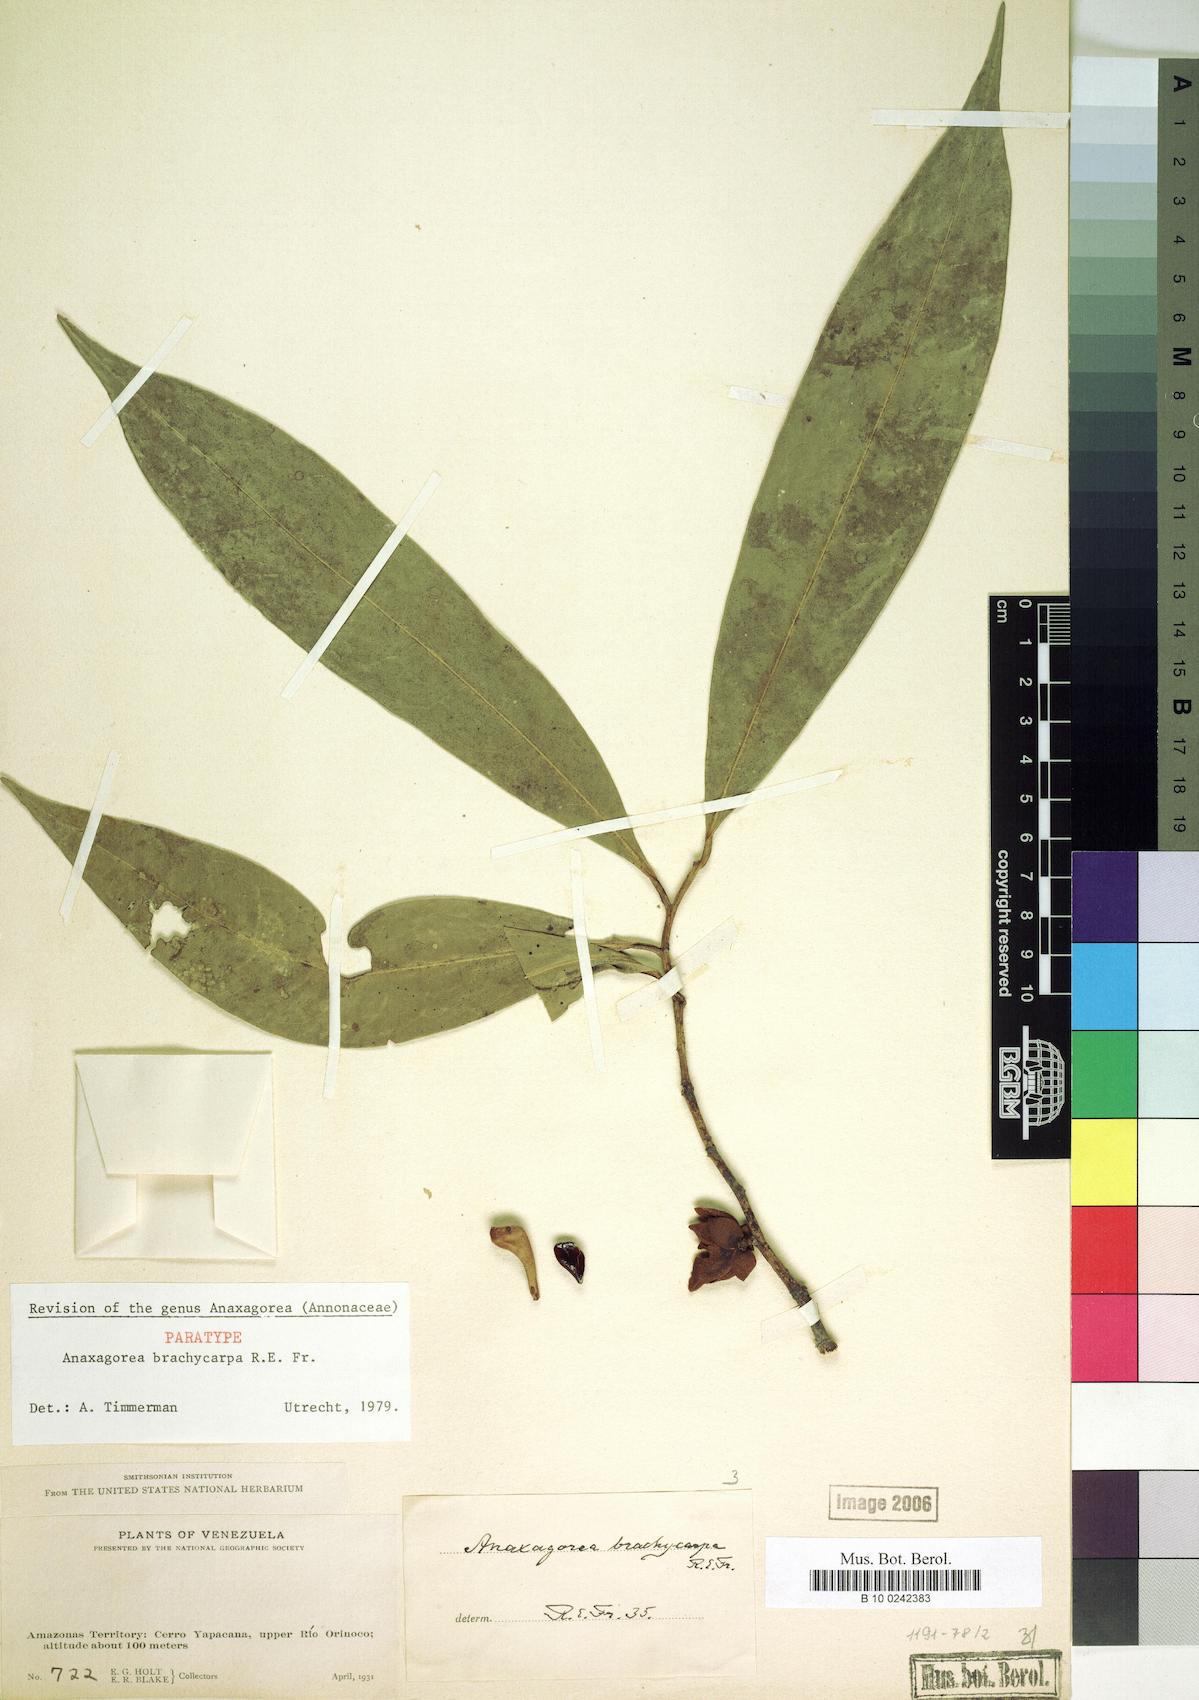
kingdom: Plantae
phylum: Tracheophyta
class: Magnoliopsida
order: Magnoliales
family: Annonaceae
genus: Anaxagorea
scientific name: Anaxagorea brachycarpa
